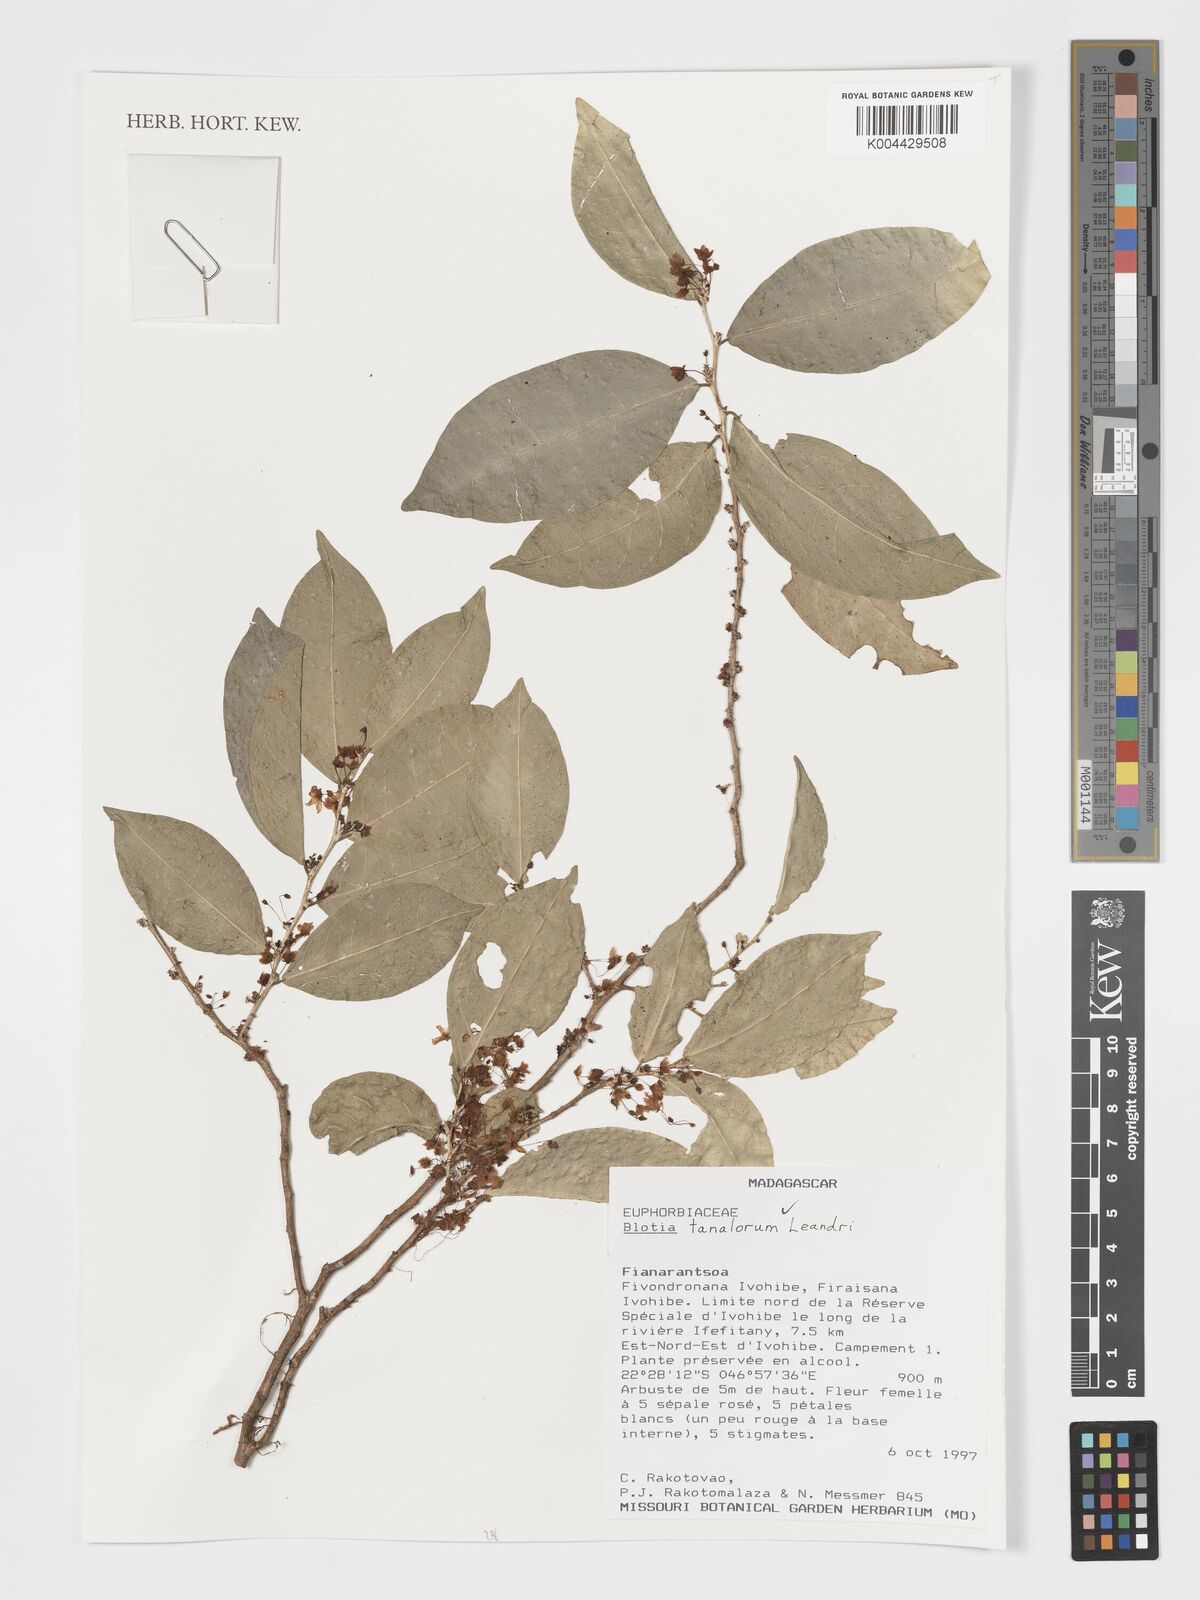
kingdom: Plantae
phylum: Tracheophyta
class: Magnoliopsida
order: Malpighiales
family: Phyllanthaceae
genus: Wielandia
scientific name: Wielandia tanalorum
